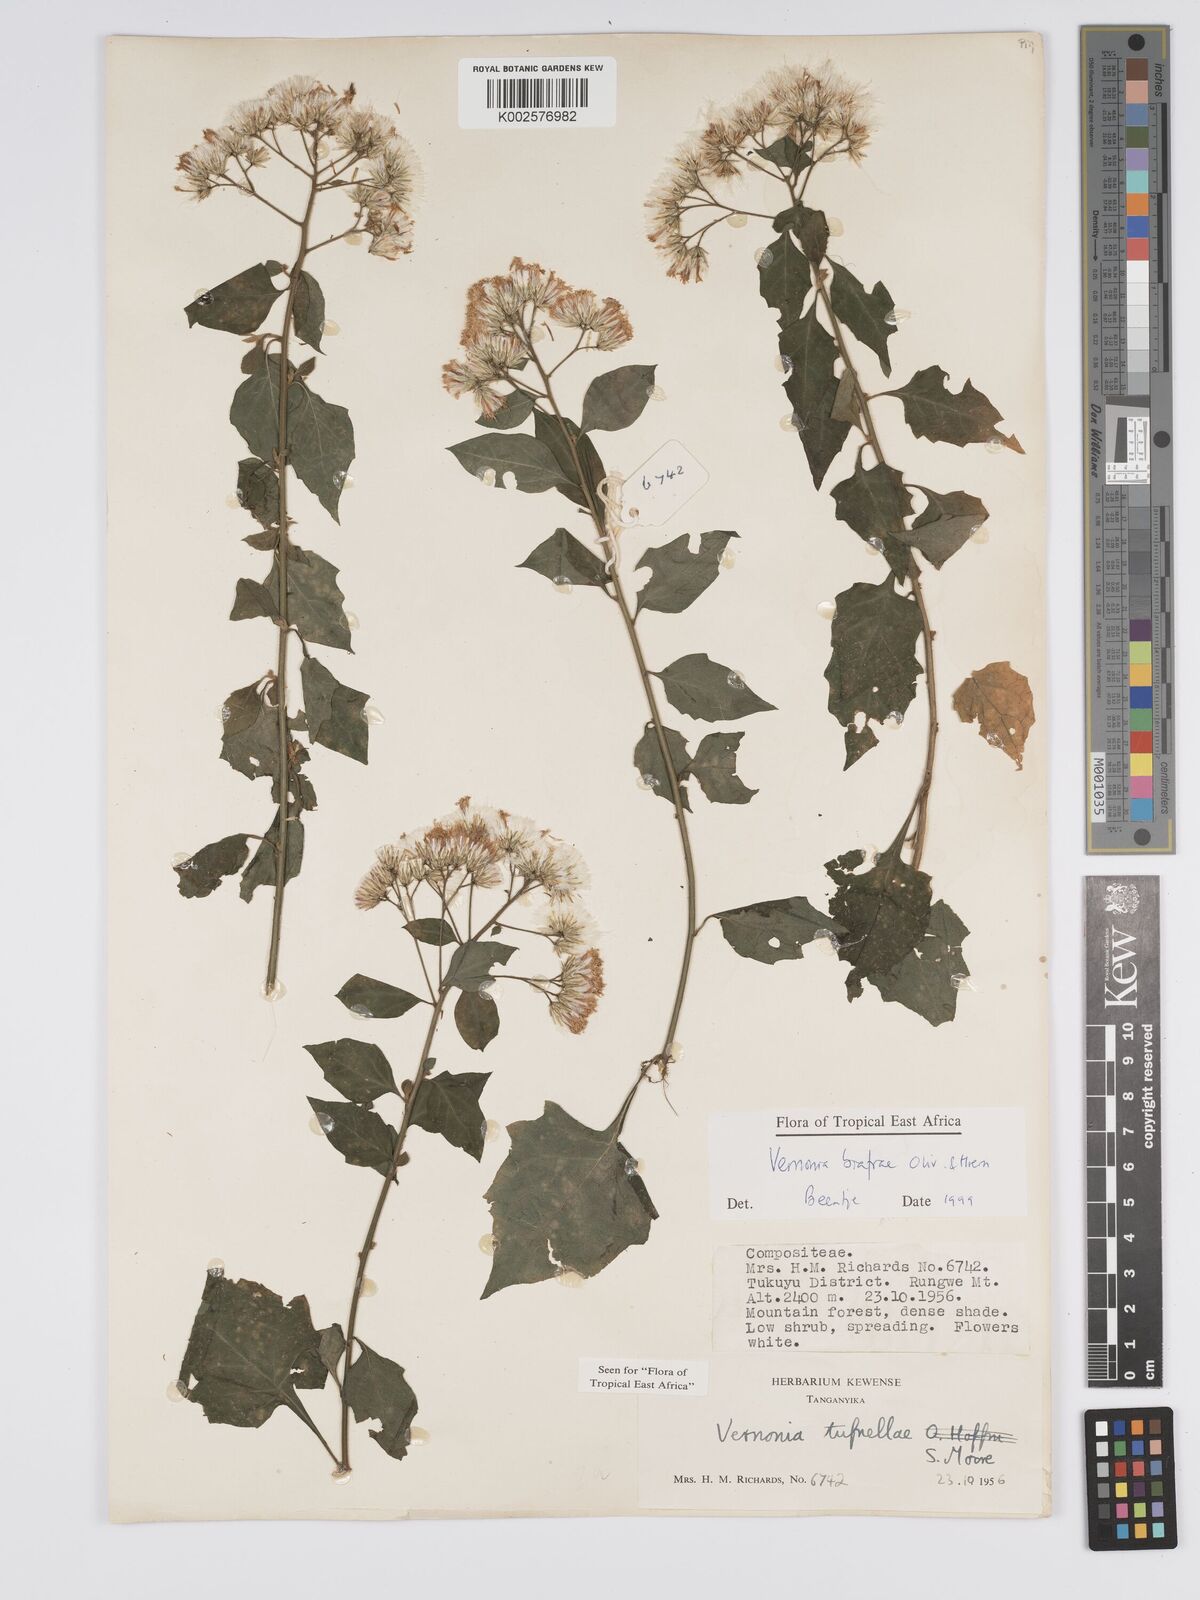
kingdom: Plantae
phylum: Tracheophyta
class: Magnoliopsida
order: Asterales
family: Asteraceae
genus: Distephanus
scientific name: Distephanus biafrae
